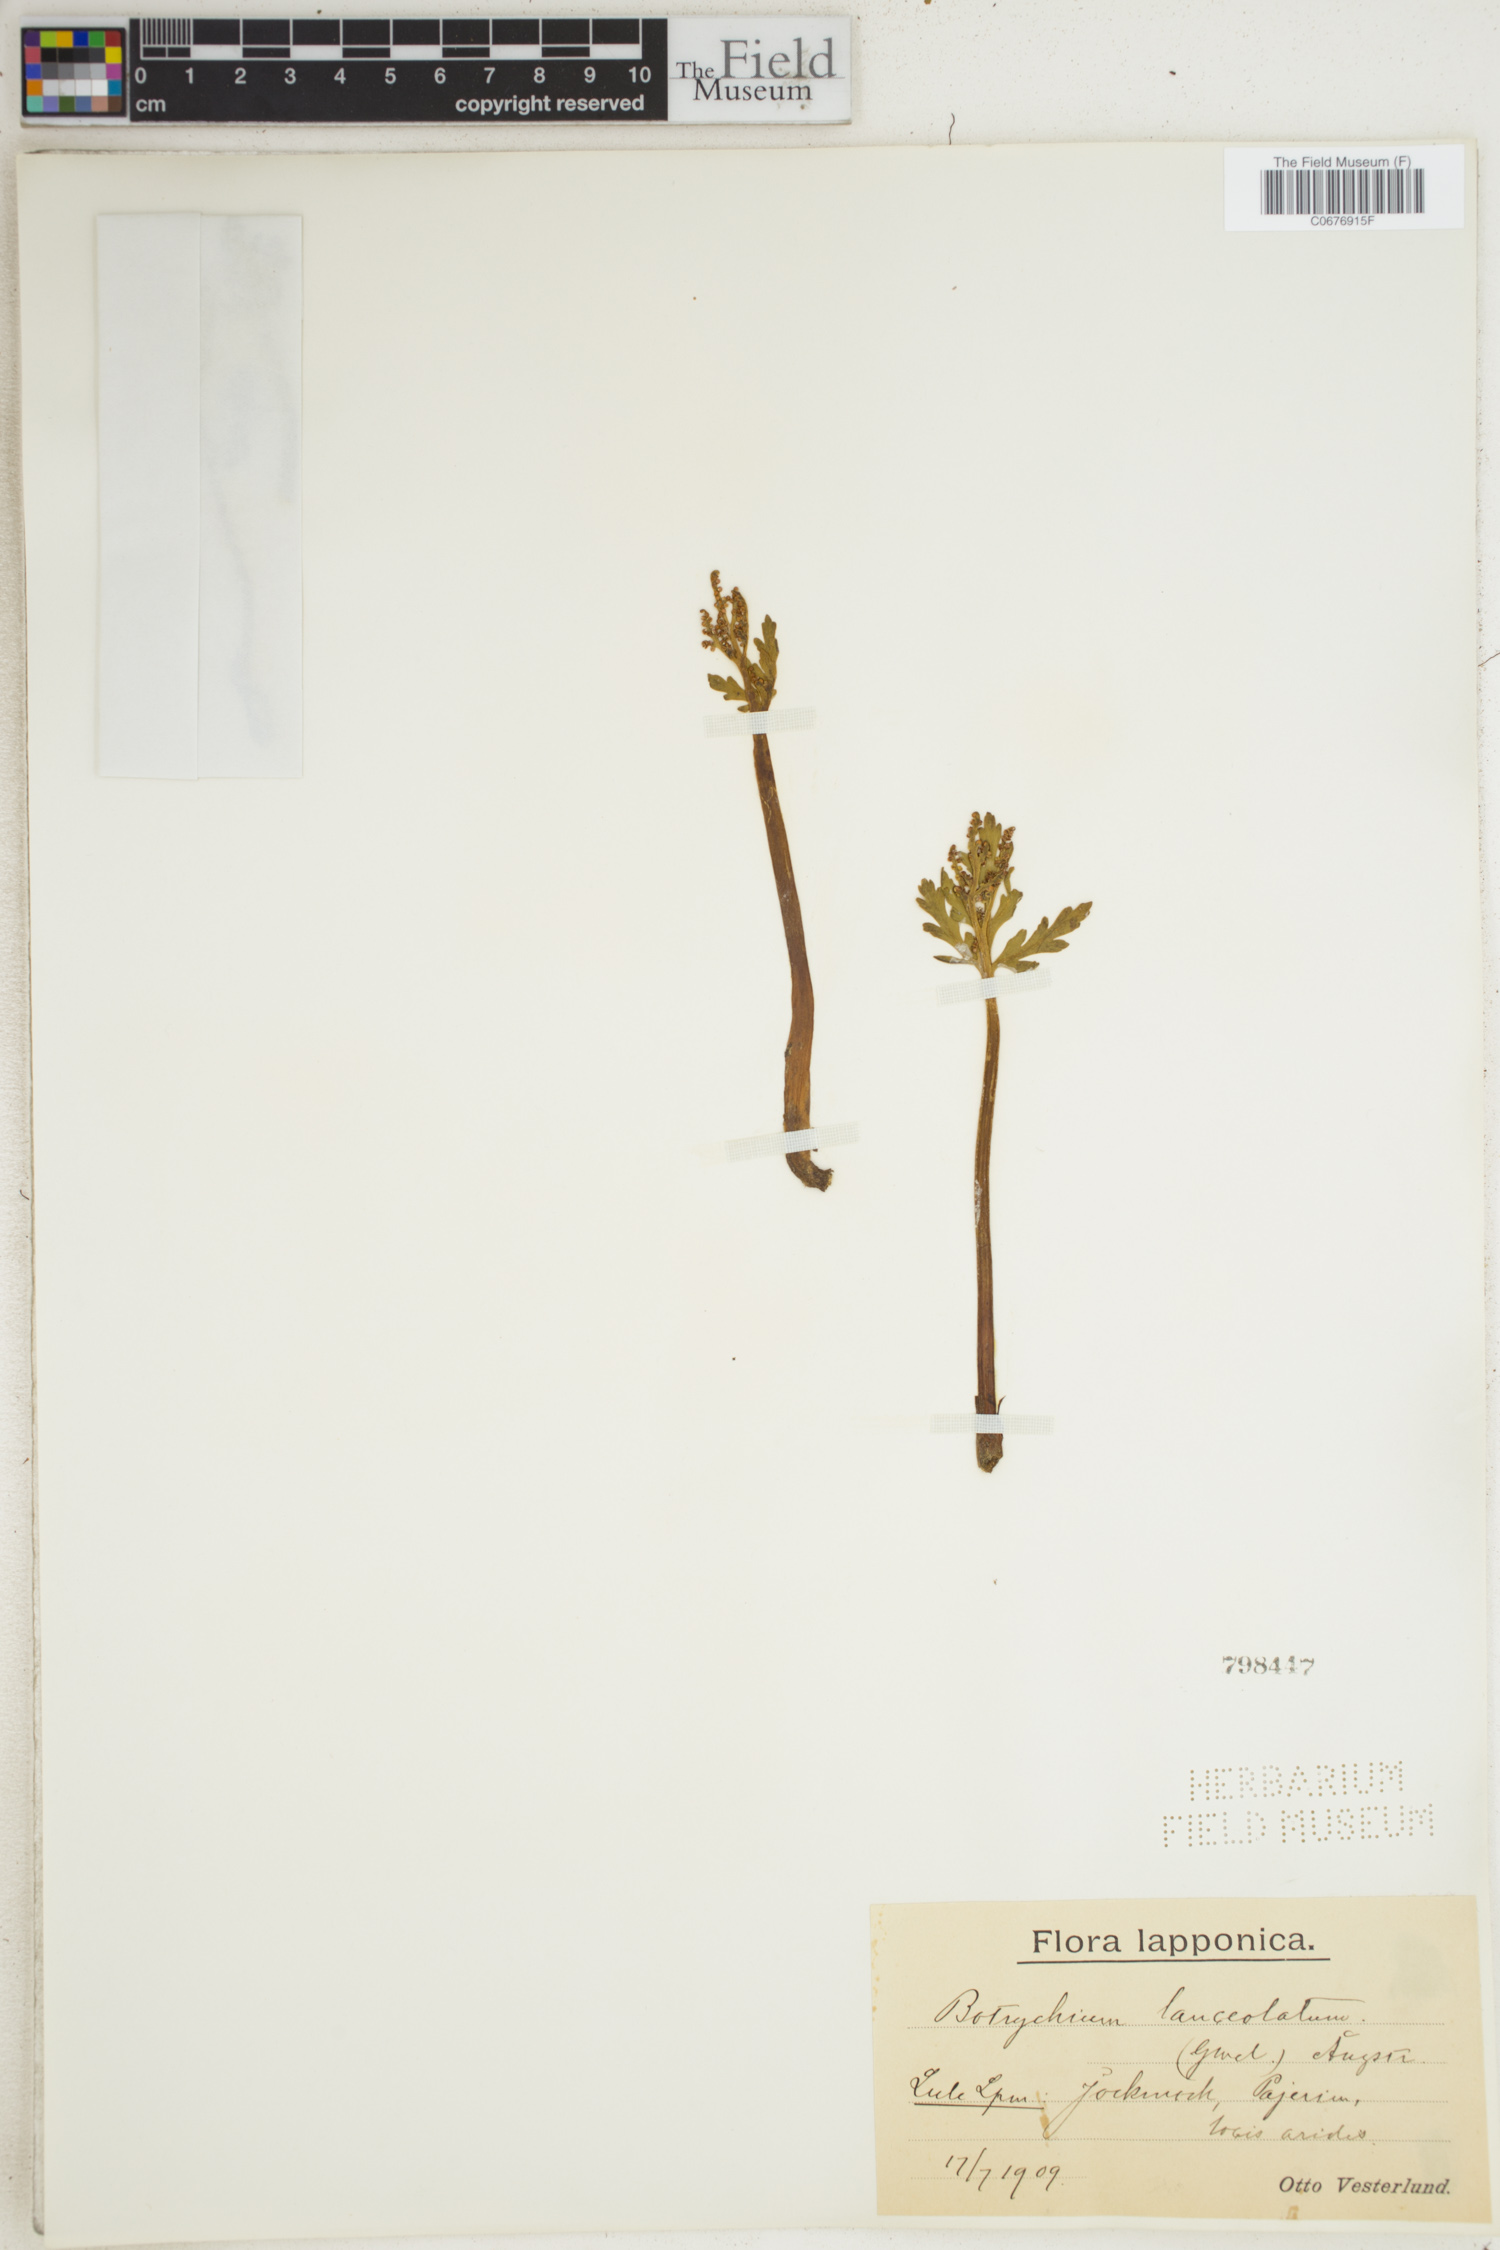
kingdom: Plantae
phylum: Tracheophyta
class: Polypodiopsida
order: Ophioglossales
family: Ophioglossaceae
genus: Botrychium
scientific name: Botrychium lanceolatum
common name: Lance-leaved moonwort
